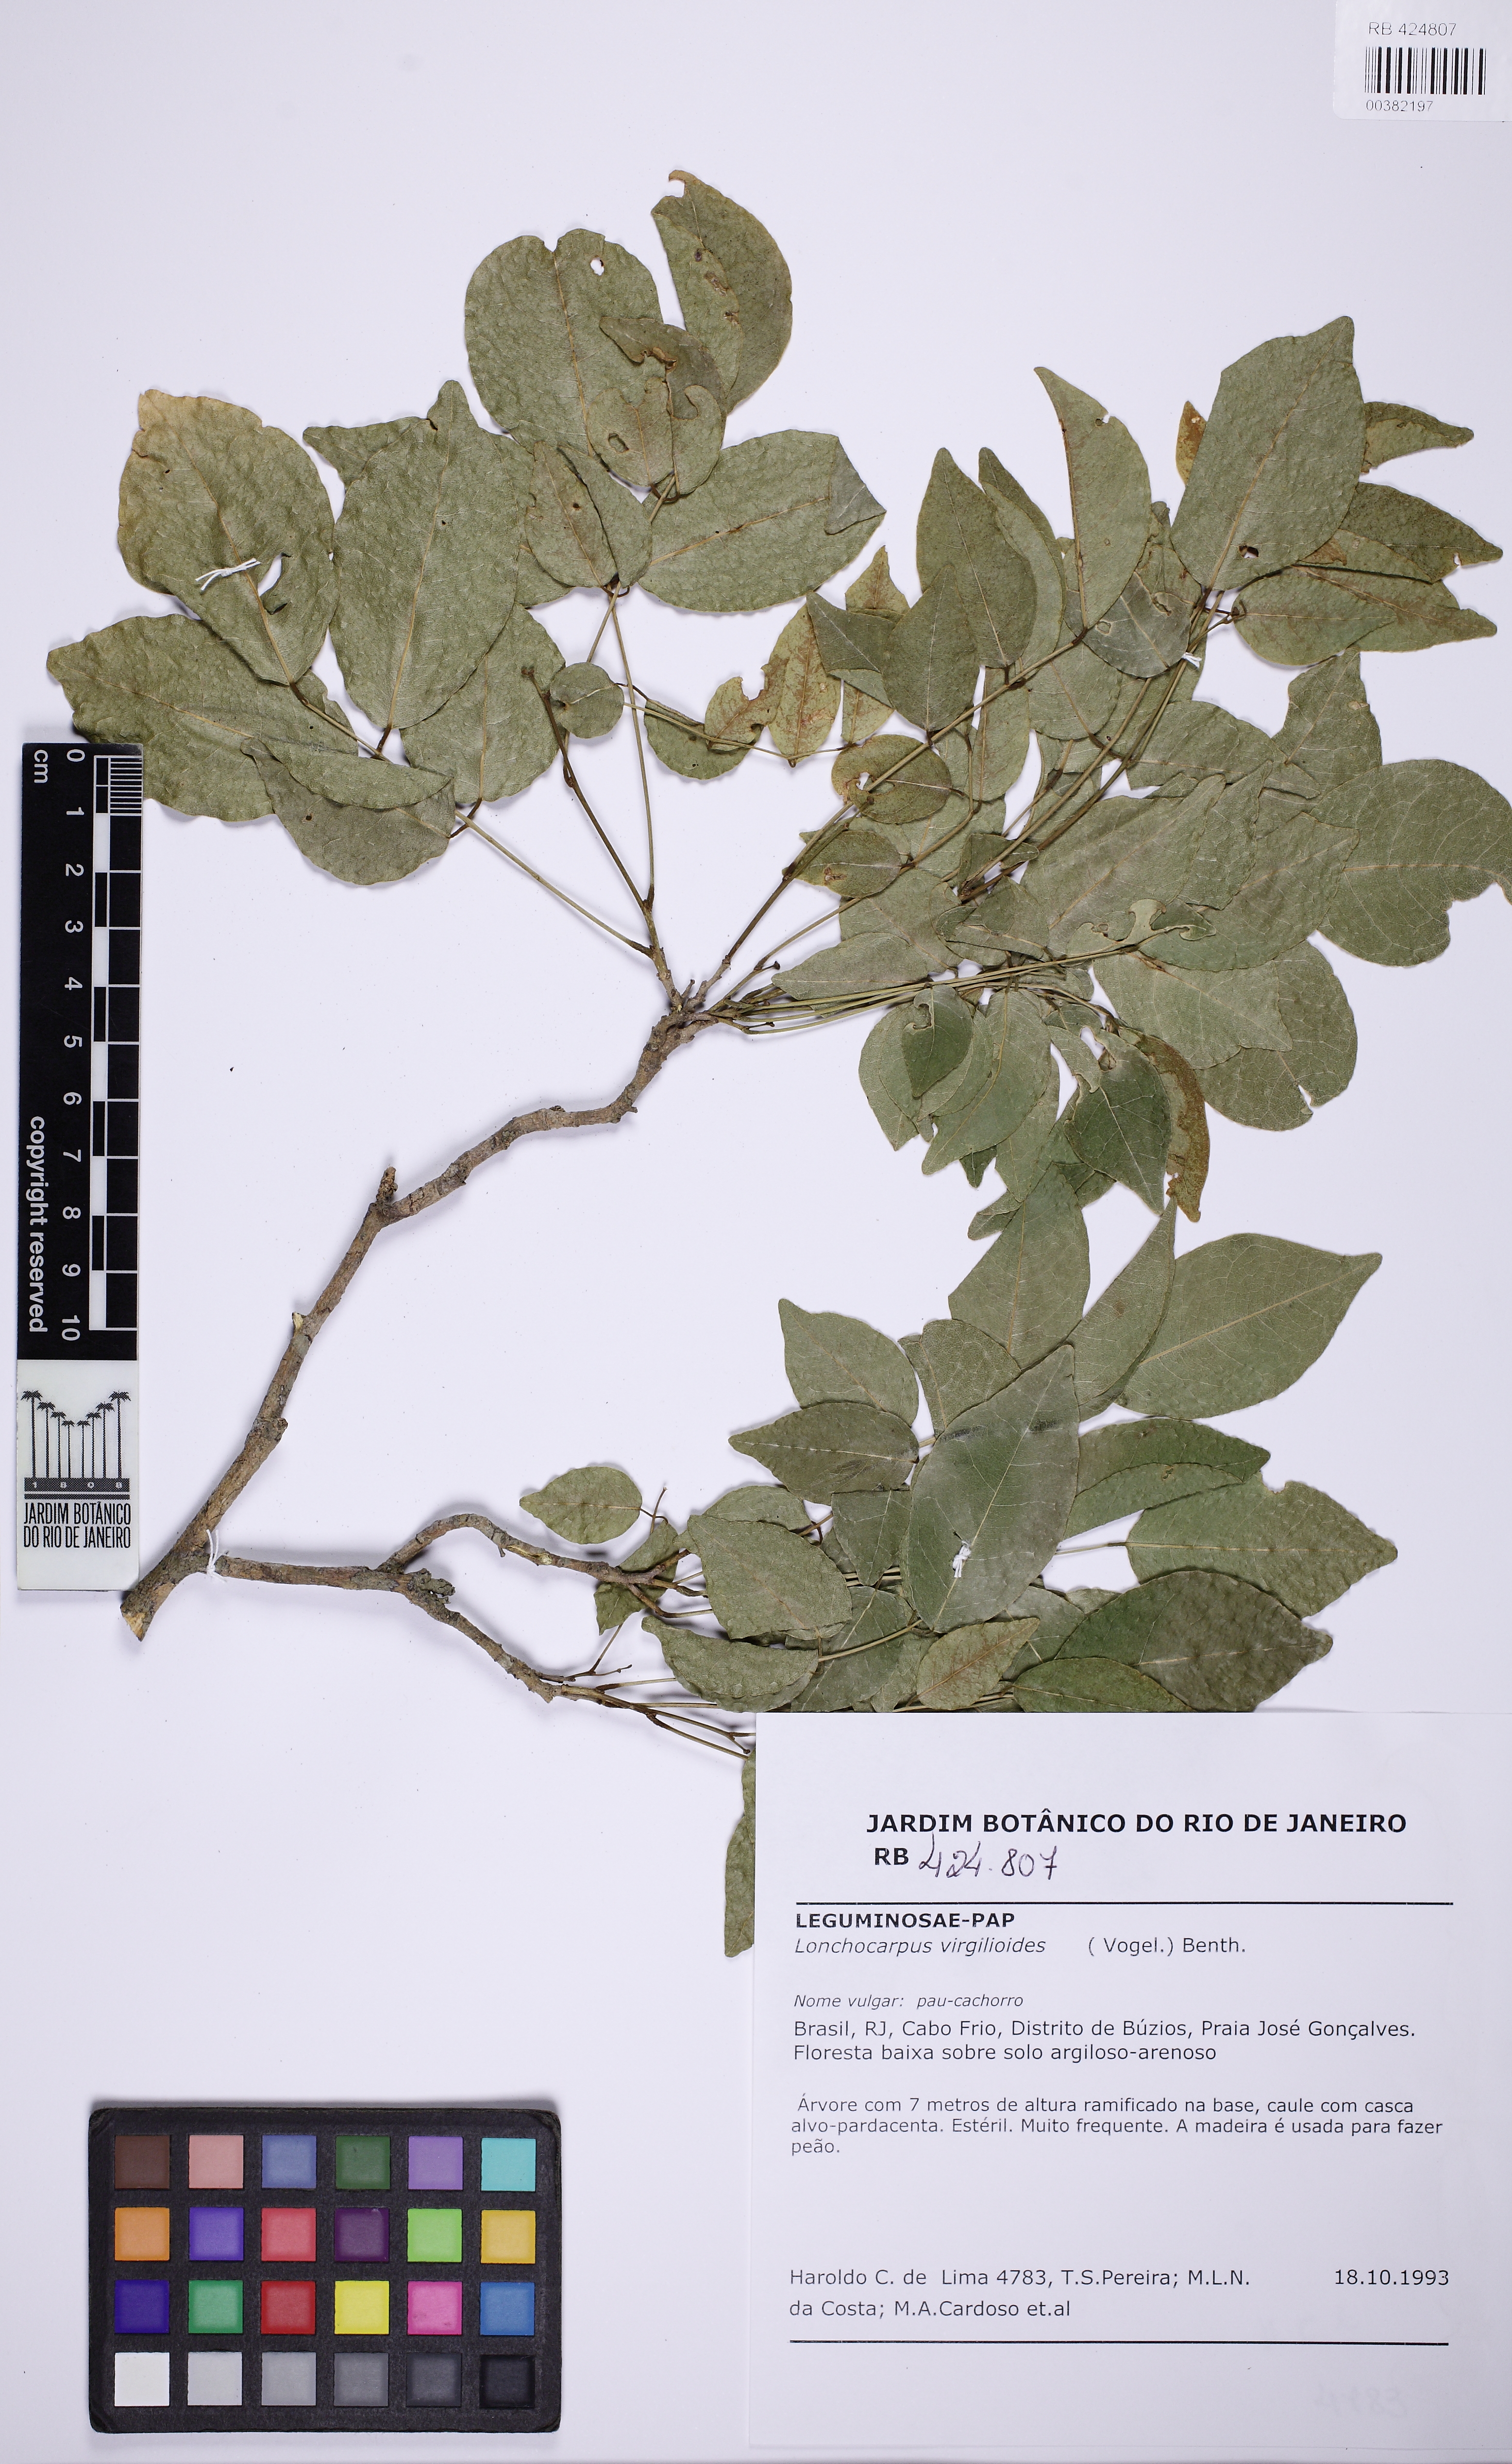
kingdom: Plantae
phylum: Tracheophyta
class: Magnoliopsida
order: Fabales
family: Fabaceae
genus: Muellera
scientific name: Muellera virgilioides
